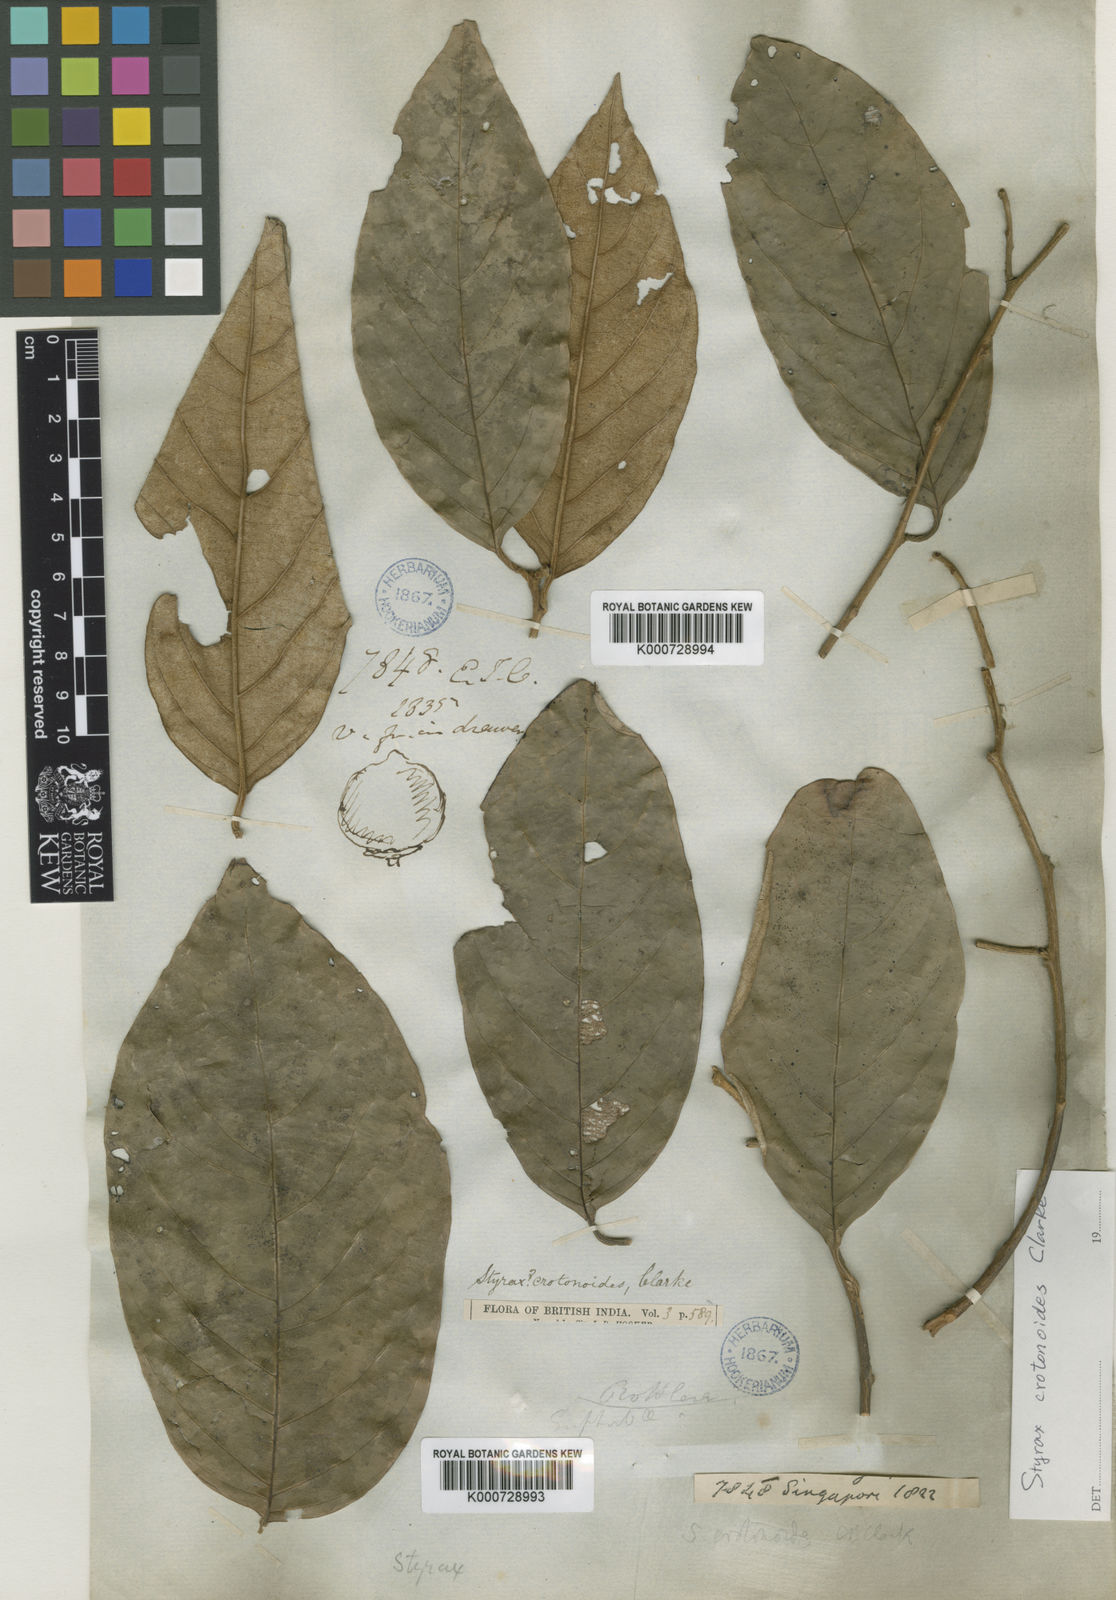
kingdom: Plantae
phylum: Tracheophyta
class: Magnoliopsida
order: Ericales
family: Styracaceae
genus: Styrax
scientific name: Styrax crotonoides
